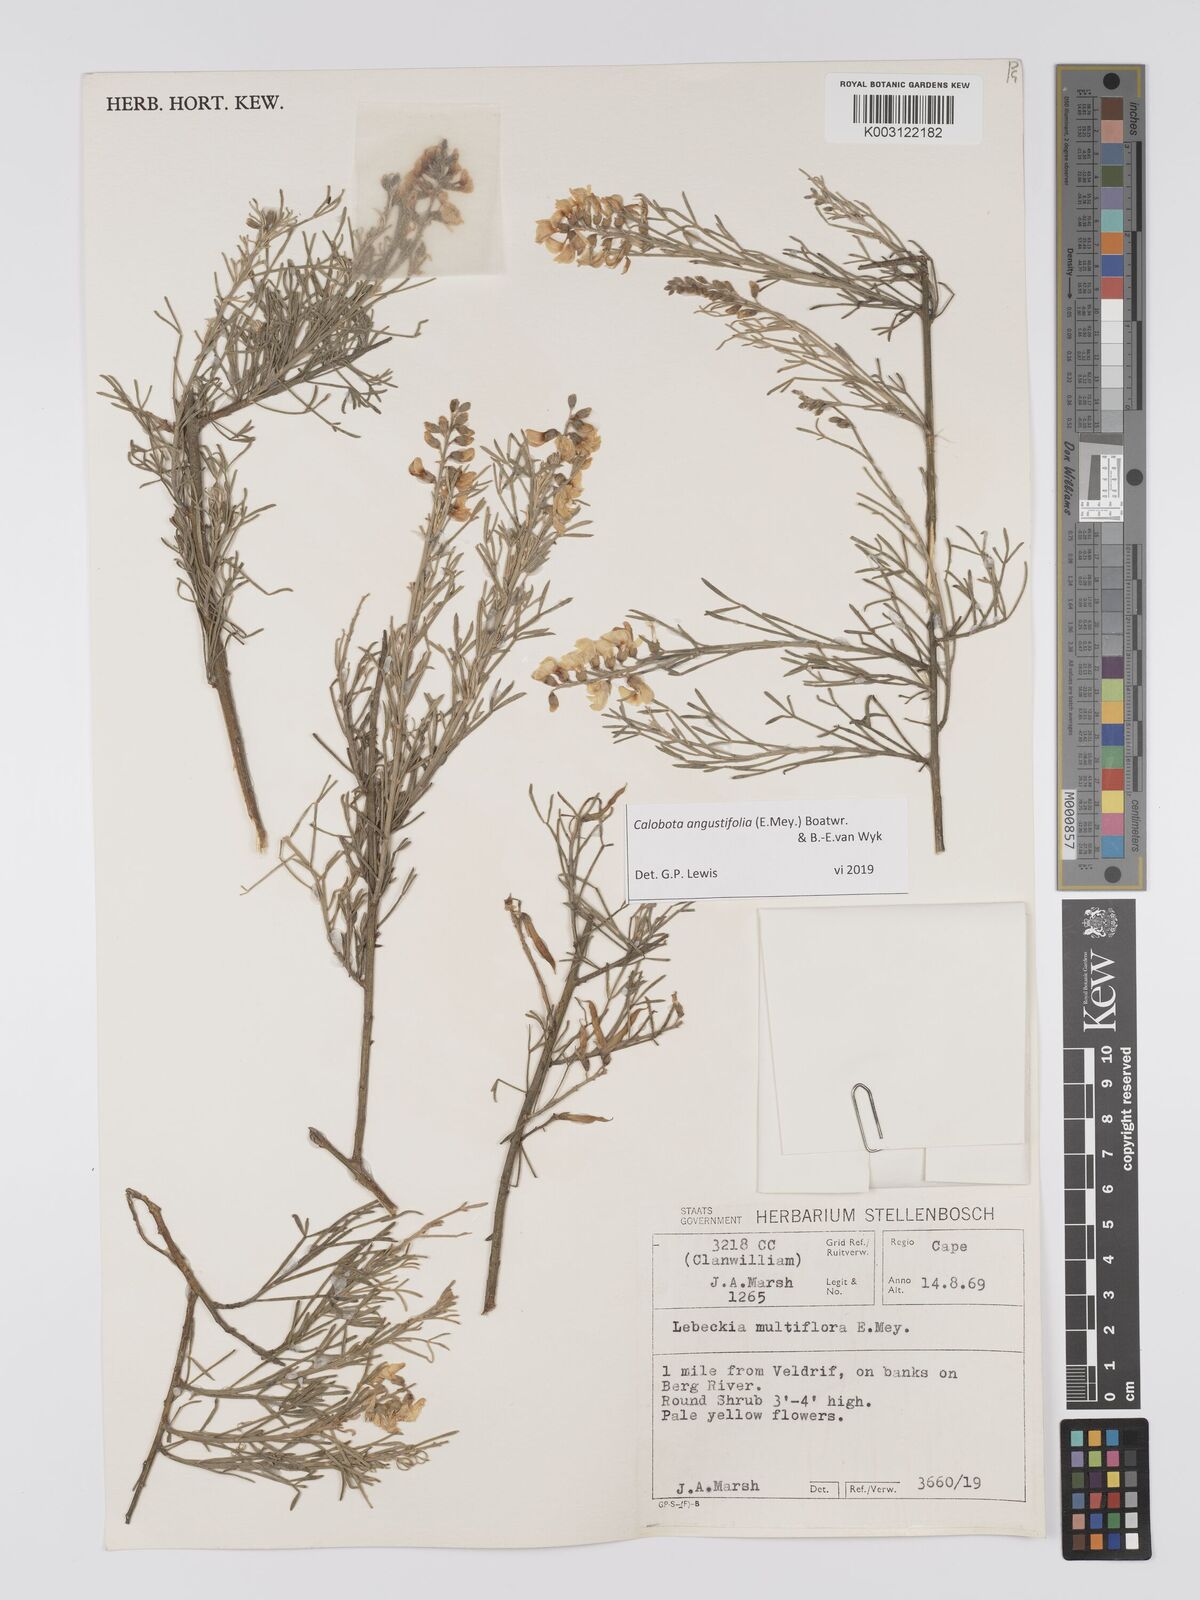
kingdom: Plantae
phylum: Tracheophyta
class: Magnoliopsida
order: Fabales
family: Fabaceae
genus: Calobota
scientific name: Calobota angustifolia
